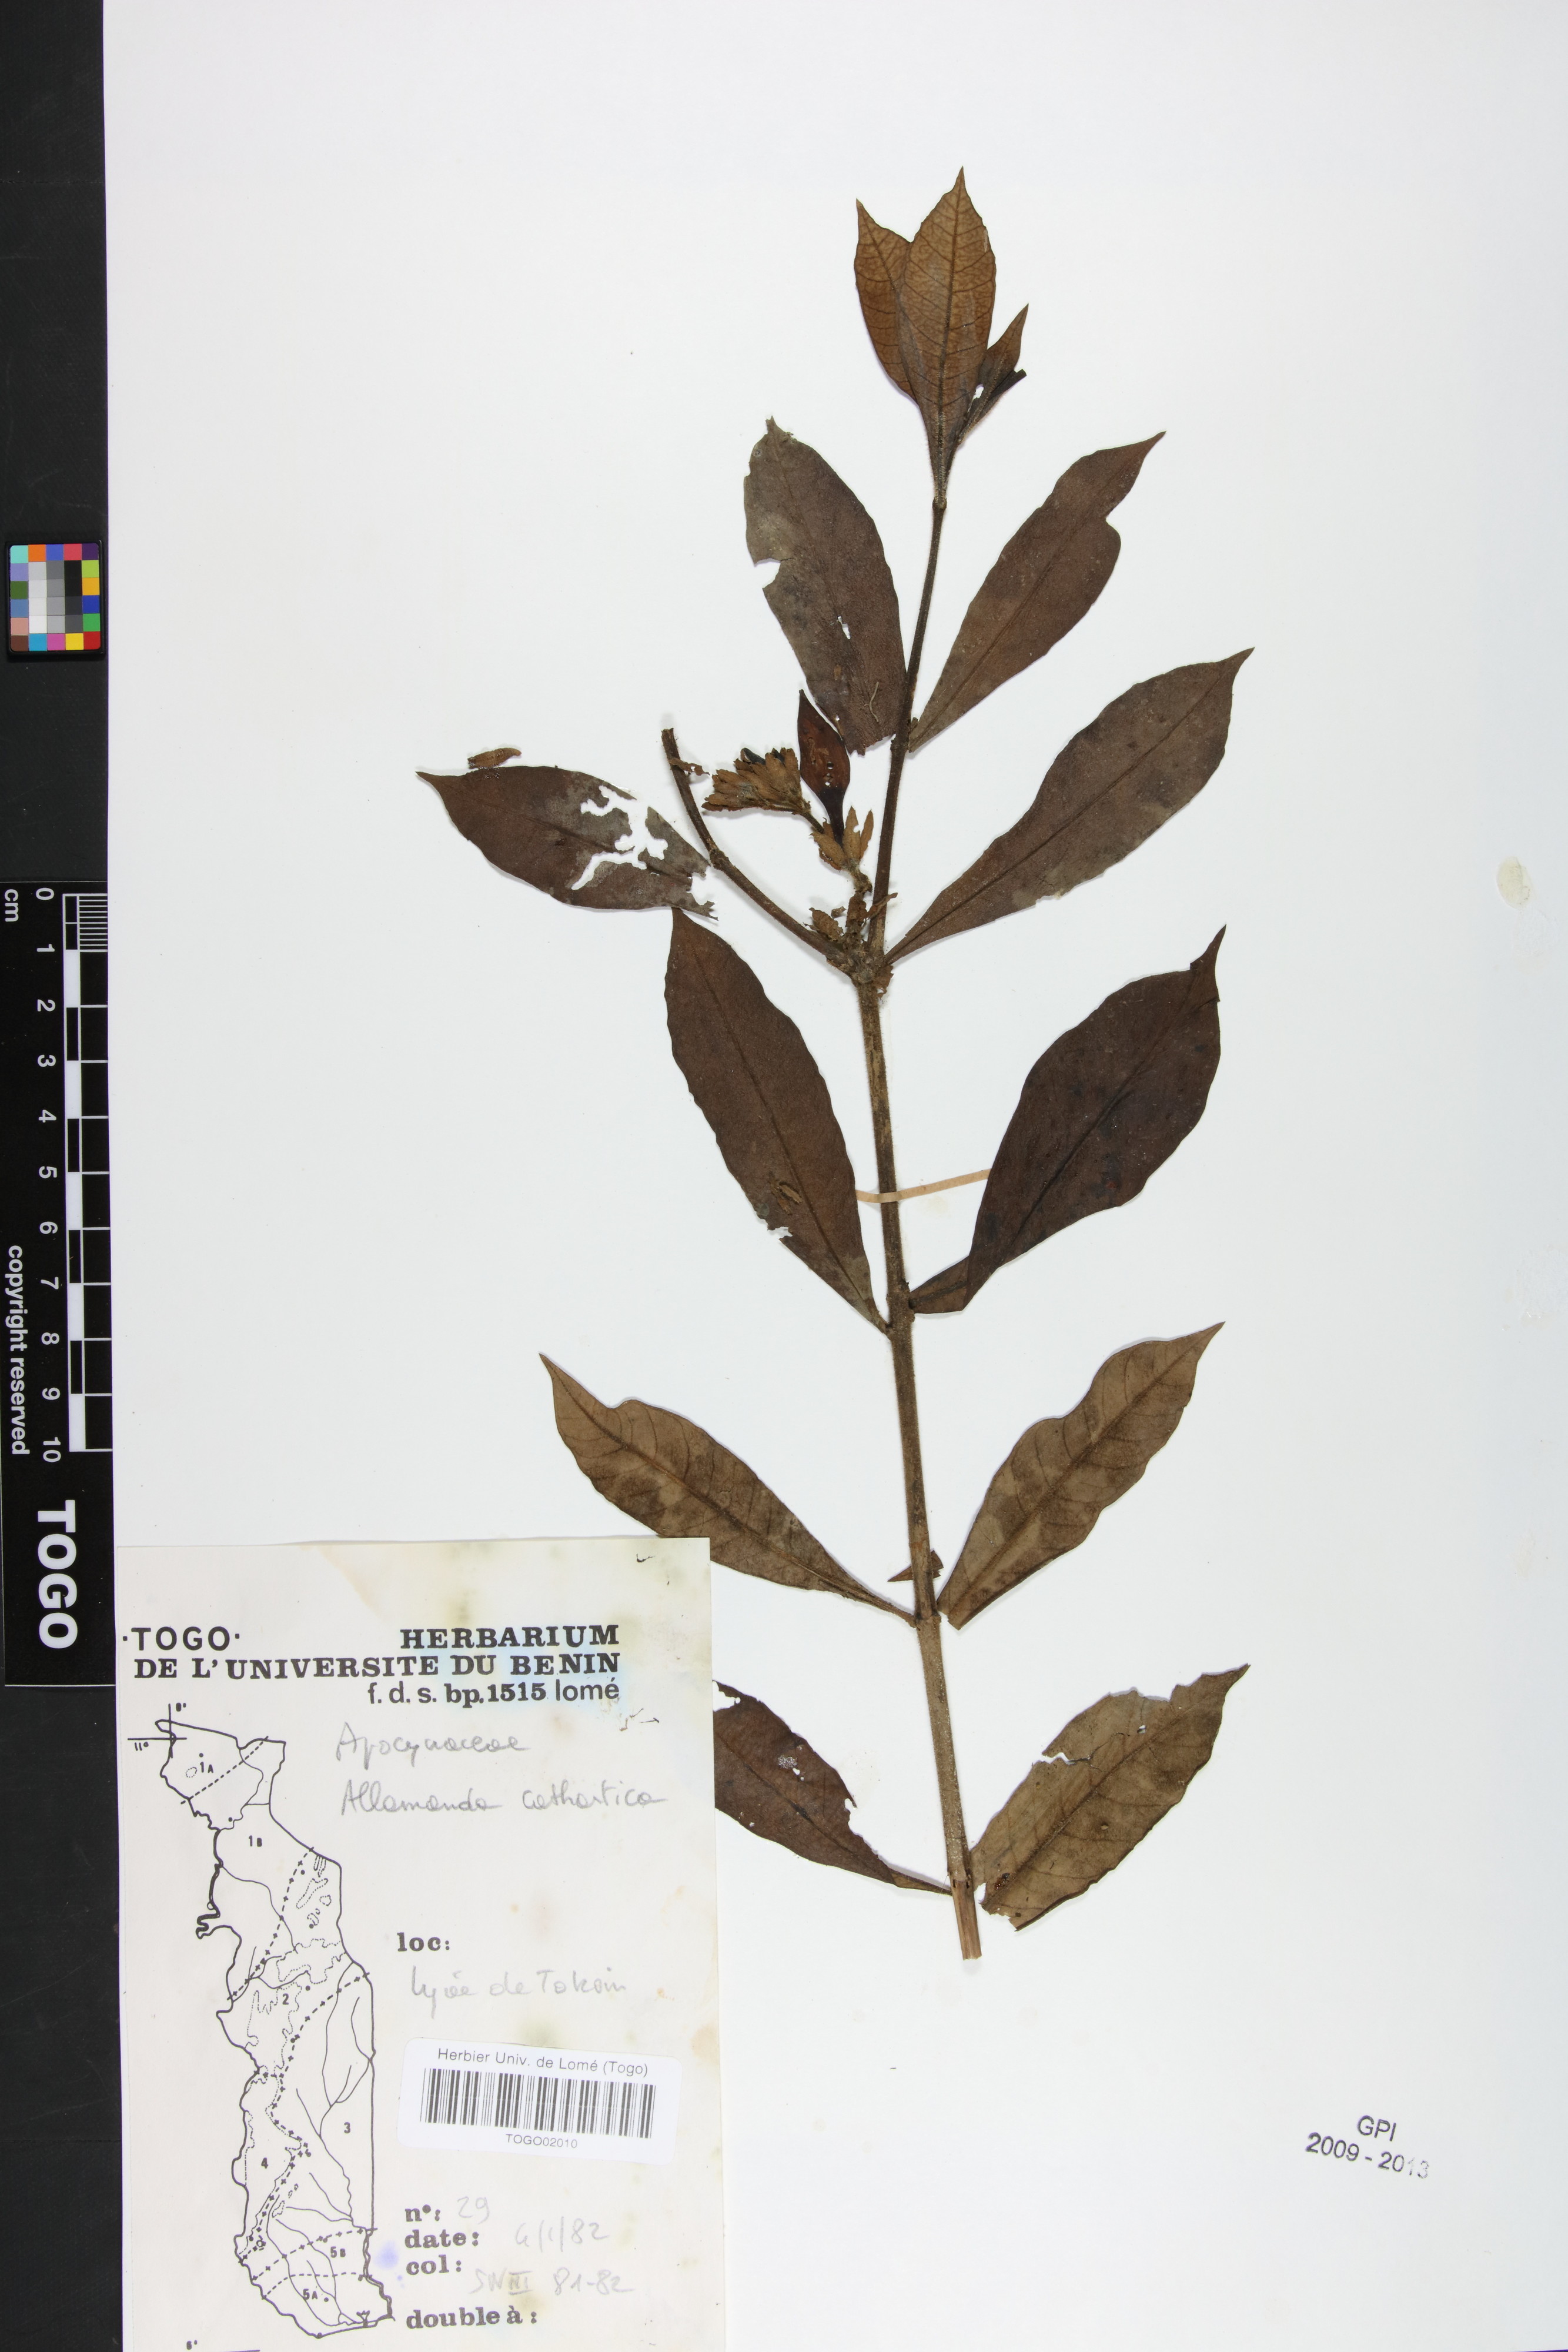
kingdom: Plantae
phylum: Tracheophyta
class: Magnoliopsida
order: Gentianales
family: Apocynaceae
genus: Allamanda
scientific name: Allamanda cathartica
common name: Golden trumpet
